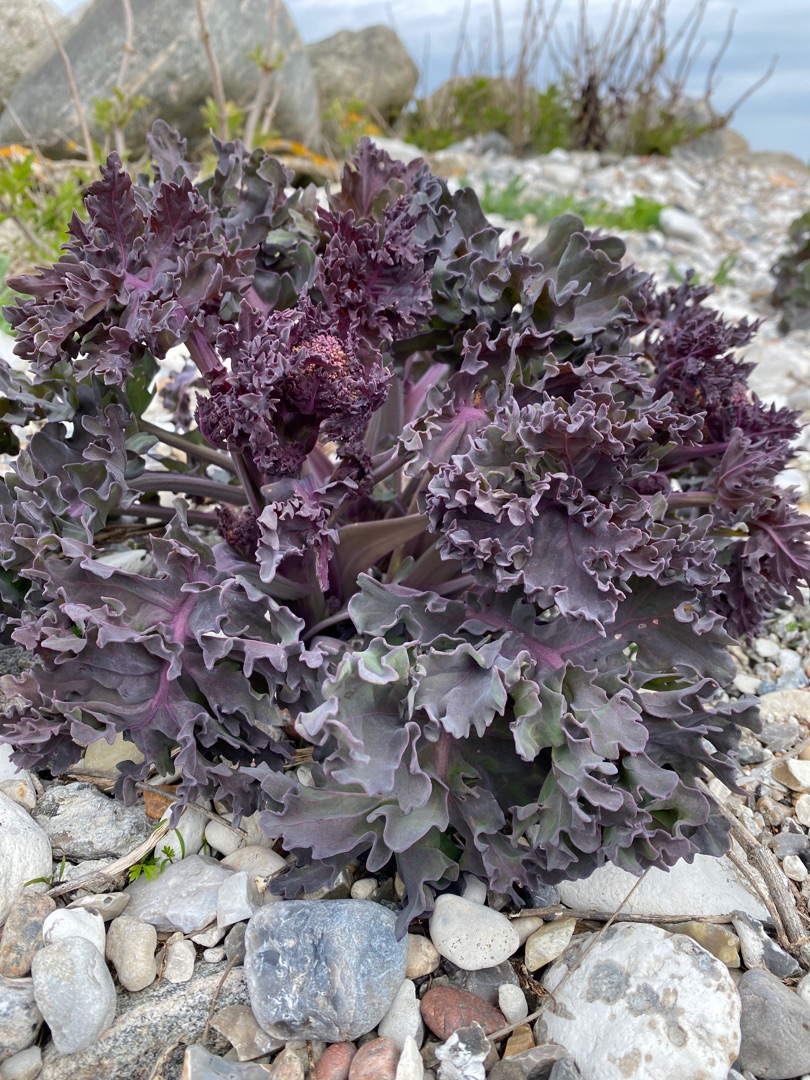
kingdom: Plantae
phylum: Tracheophyta
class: Magnoliopsida
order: Brassicales
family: Brassicaceae
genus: Crambe
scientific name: Crambe maritima
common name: Strandkål
